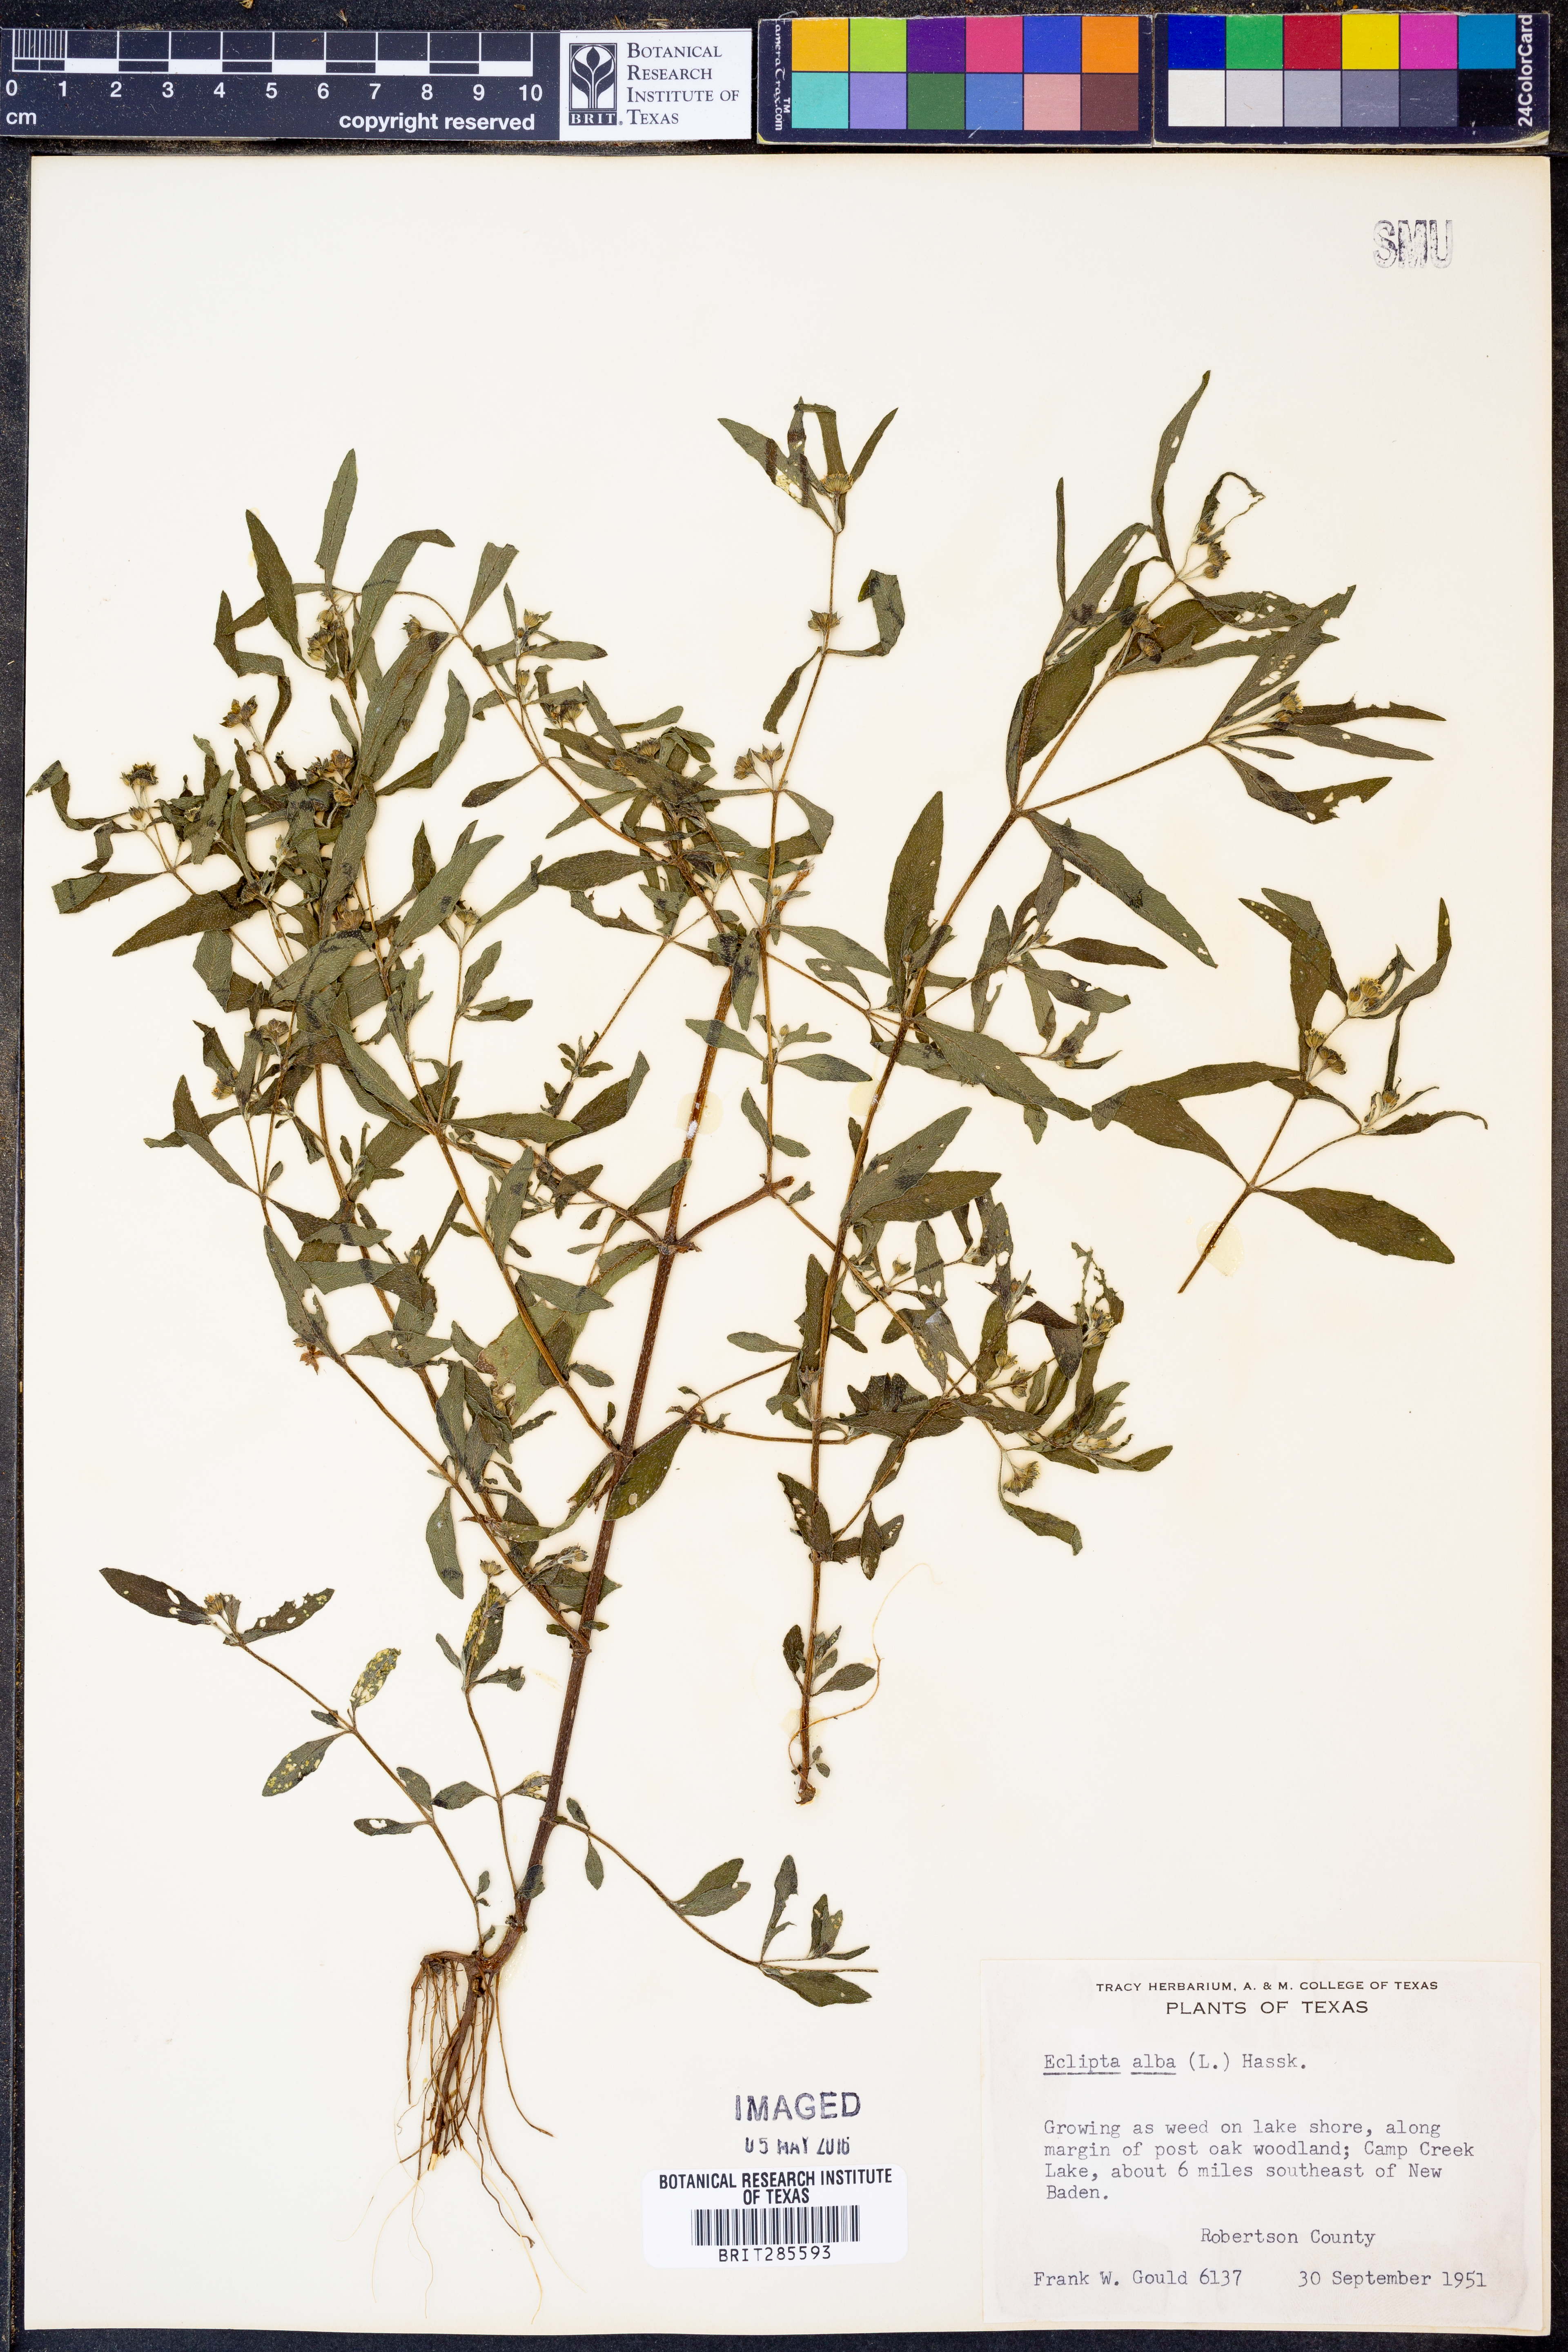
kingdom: Plantae
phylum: Tracheophyta
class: Magnoliopsida
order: Asterales
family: Asteraceae
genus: Eclipta
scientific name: Eclipta alba
